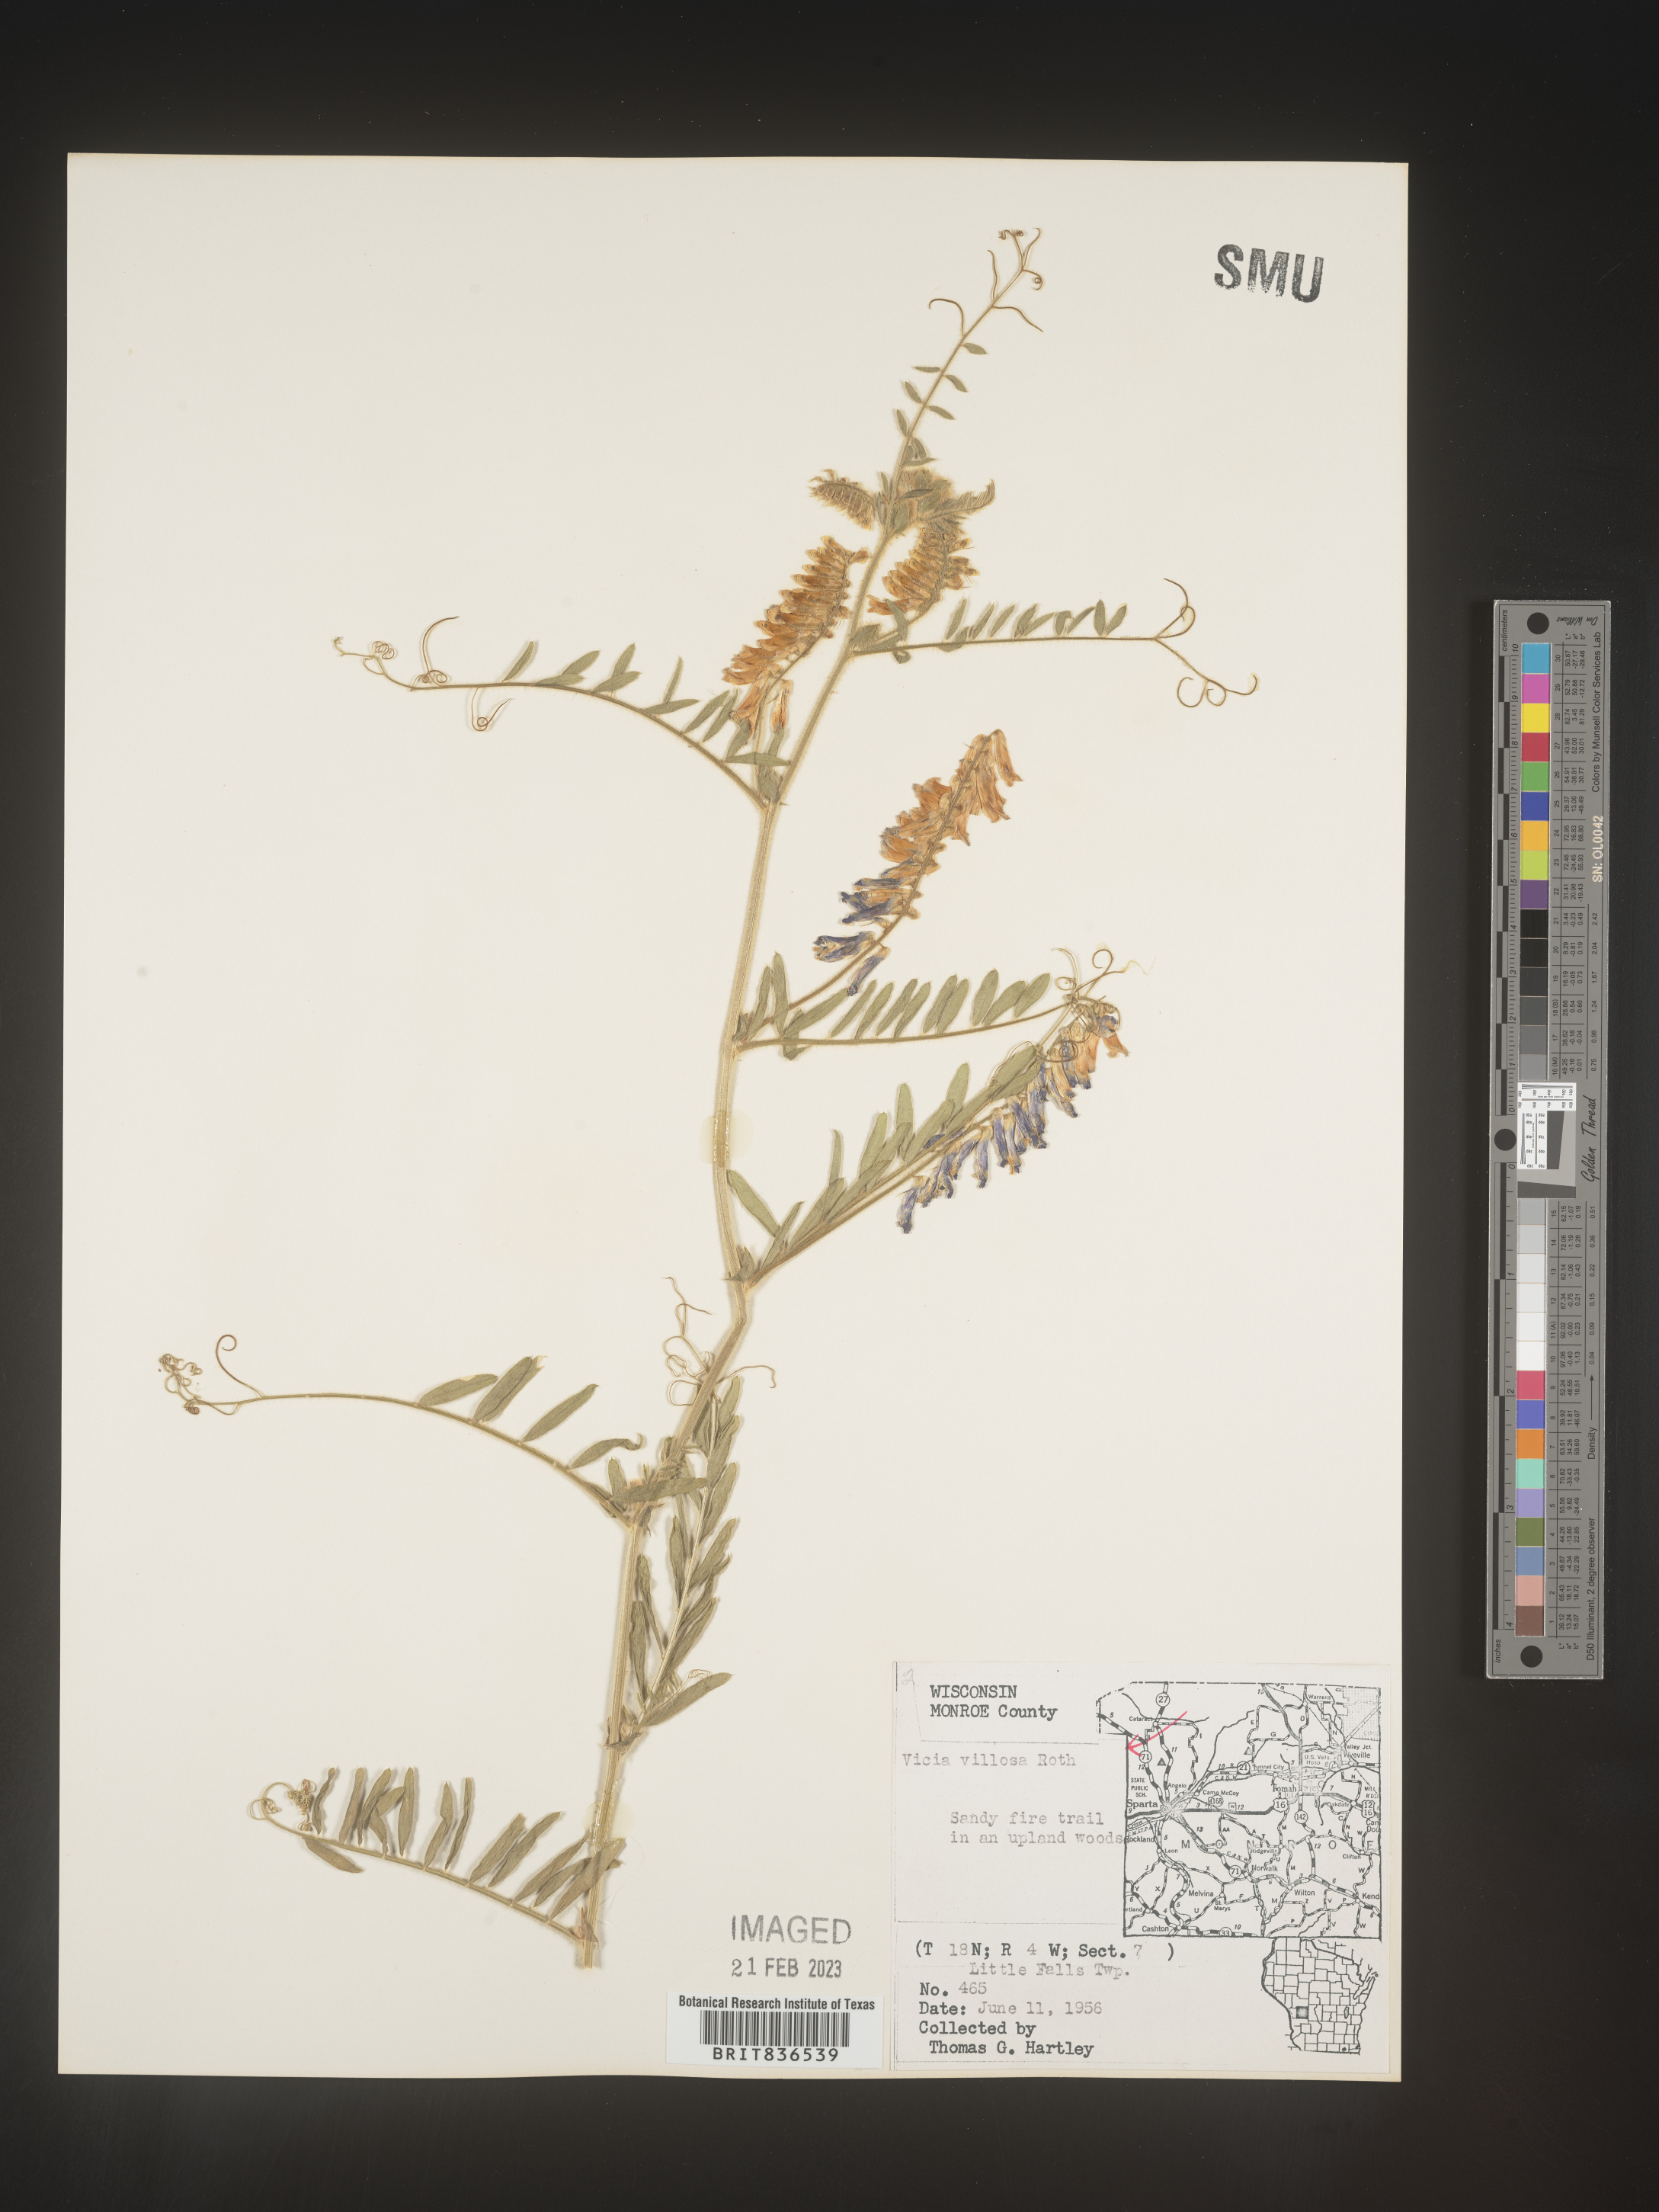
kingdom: Plantae
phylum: Tracheophyta
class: Magnoliopsida
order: Fabales
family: Fabaceae
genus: Vicia
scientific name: Vicia villosa
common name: Fodder vetch
